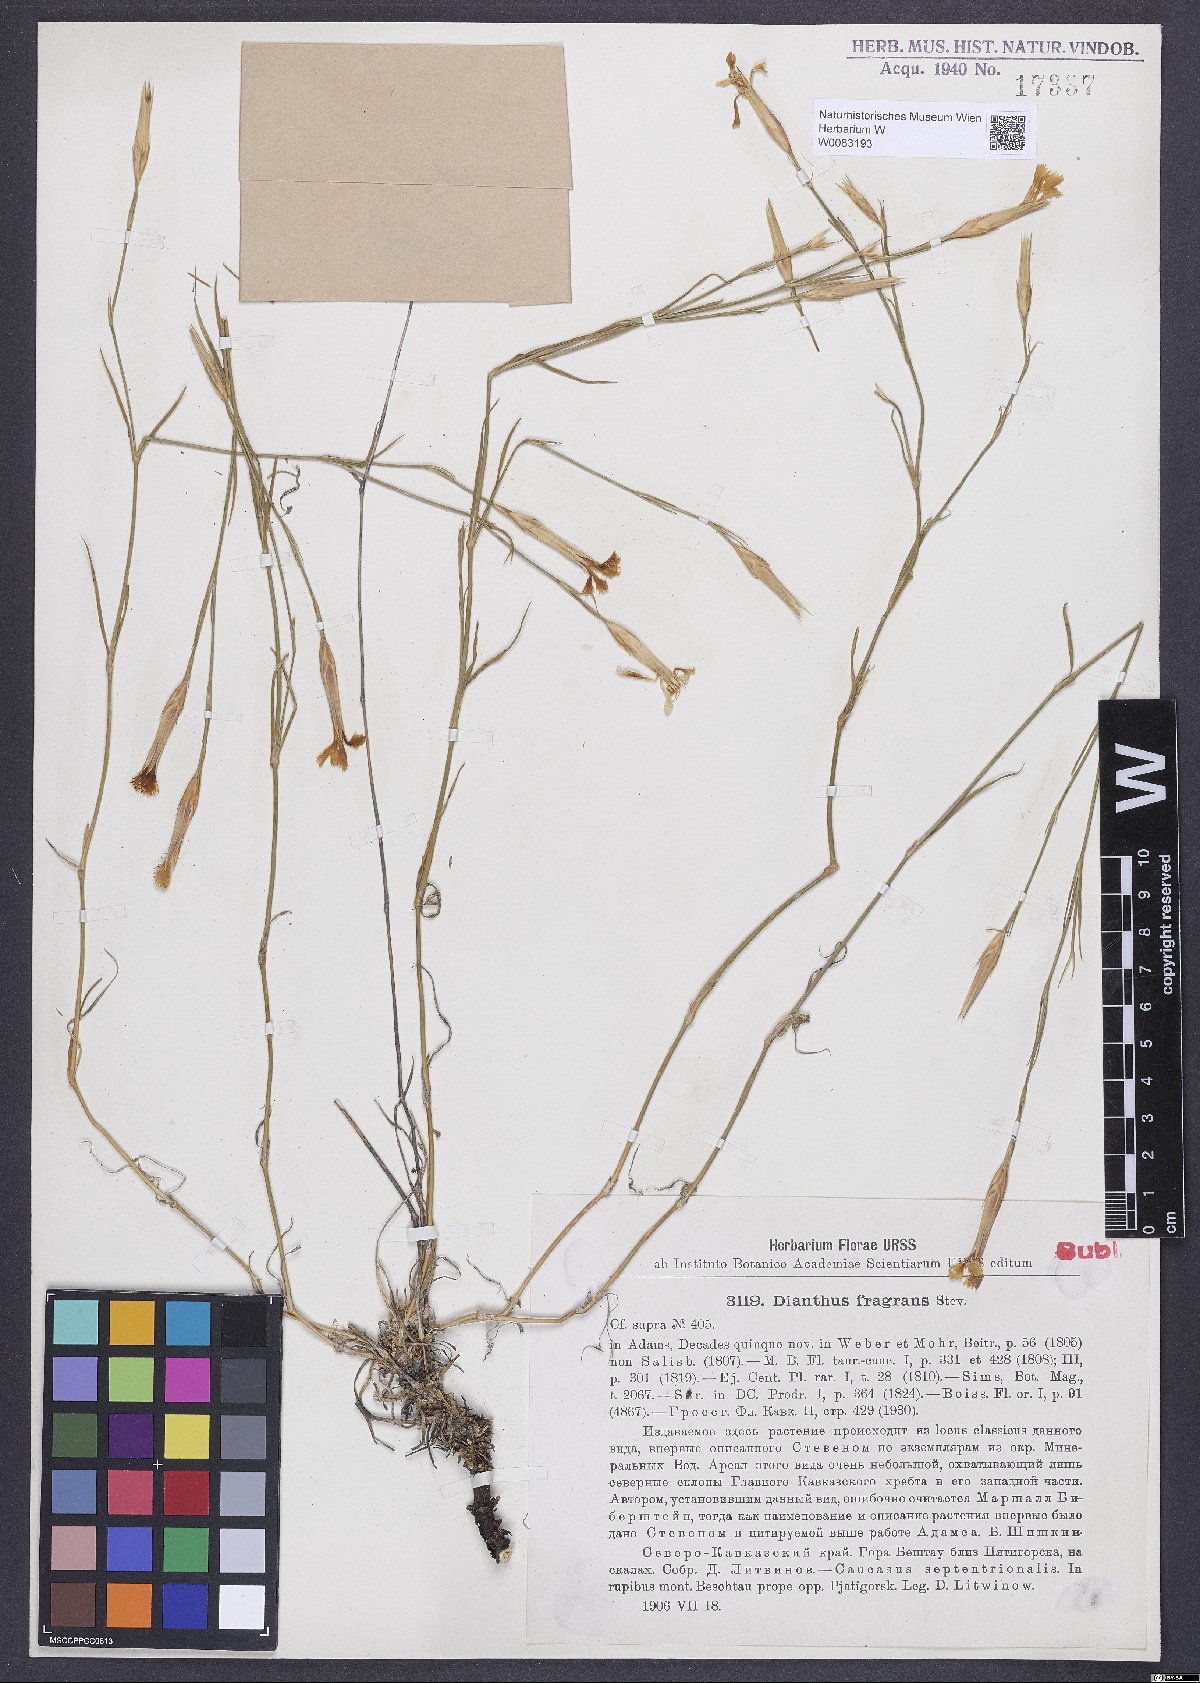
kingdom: Plantae
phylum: Tracheophyta
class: Magnoliopsida
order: Caryophyllales
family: Caryophyllaceae
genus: Dianthus
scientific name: Dianthus fragrans
